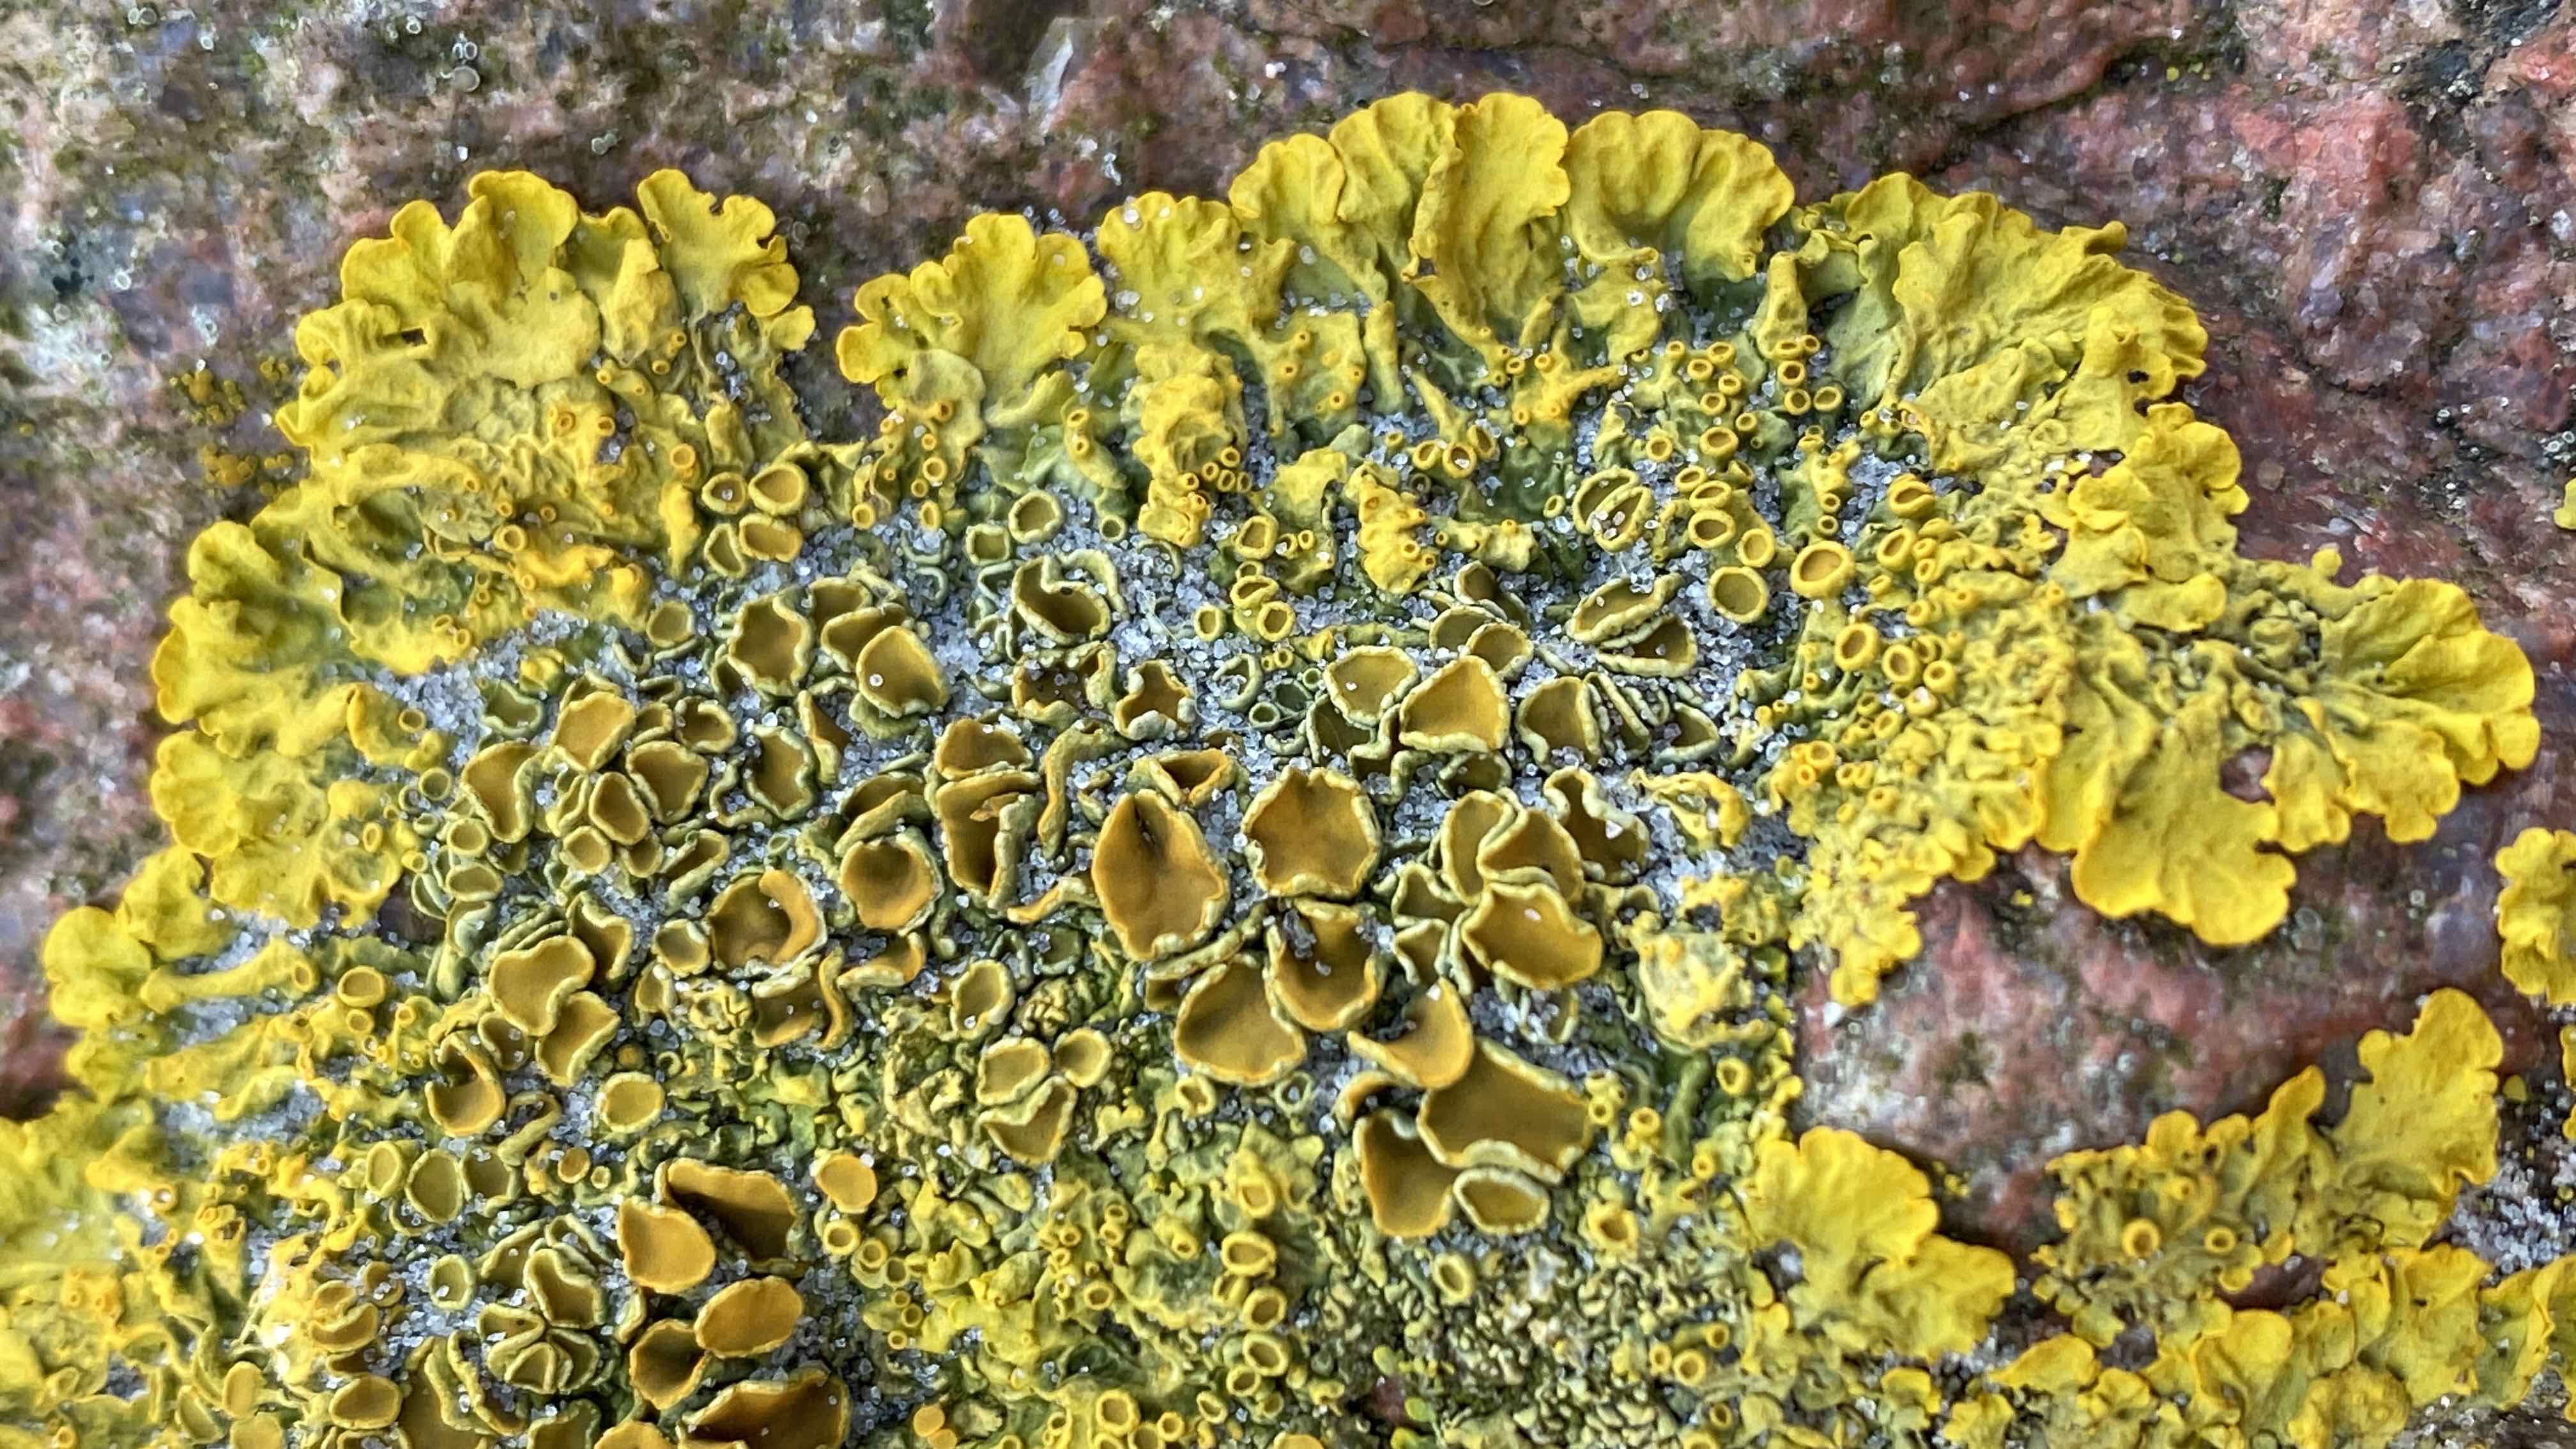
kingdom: Fungi
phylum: Ascomycota
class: Lecanoromycetes
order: Teloschistales
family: Teloschistaceae
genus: Xanthoria
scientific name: Xanthoria parietina
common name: almindelig væggelav
